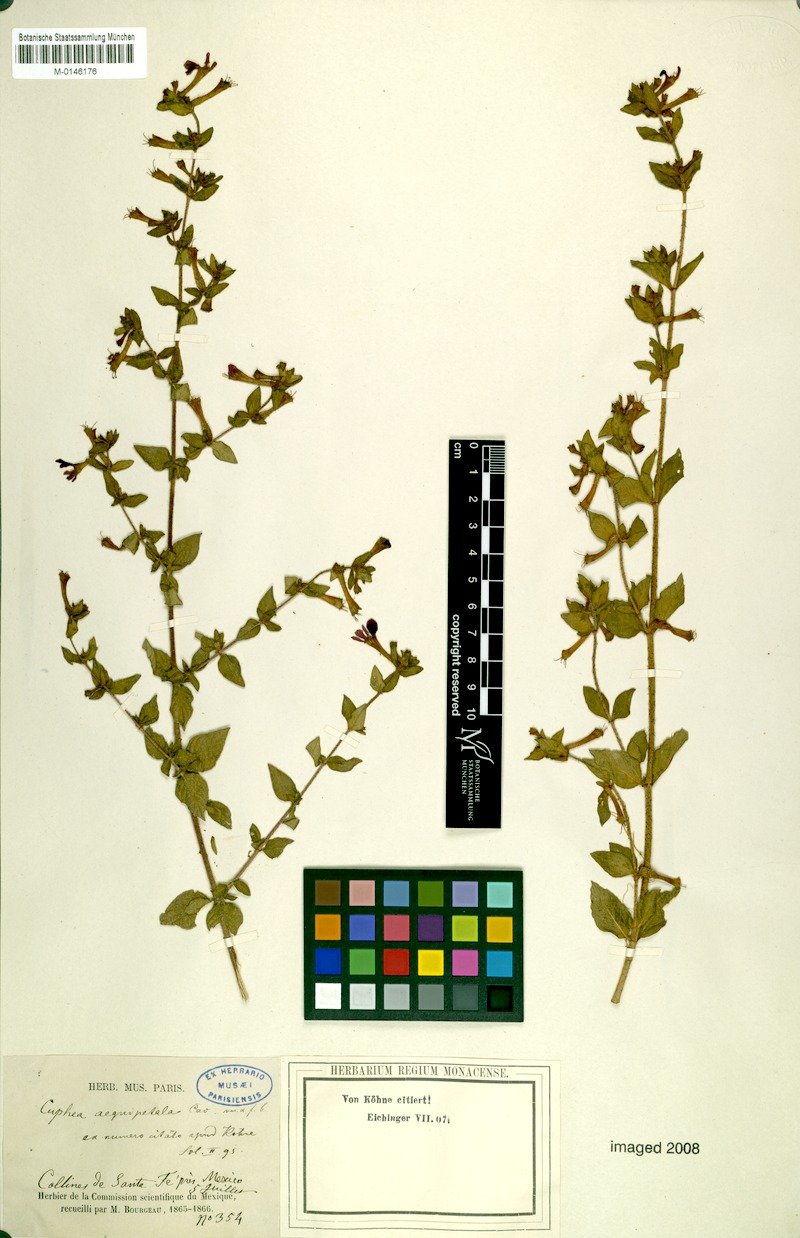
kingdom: Plantae
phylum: Tracheophyta
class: Magnoliopsida
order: Myrtales
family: Lythraceae
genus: Cuphea
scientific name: Cuphea aequipetala
